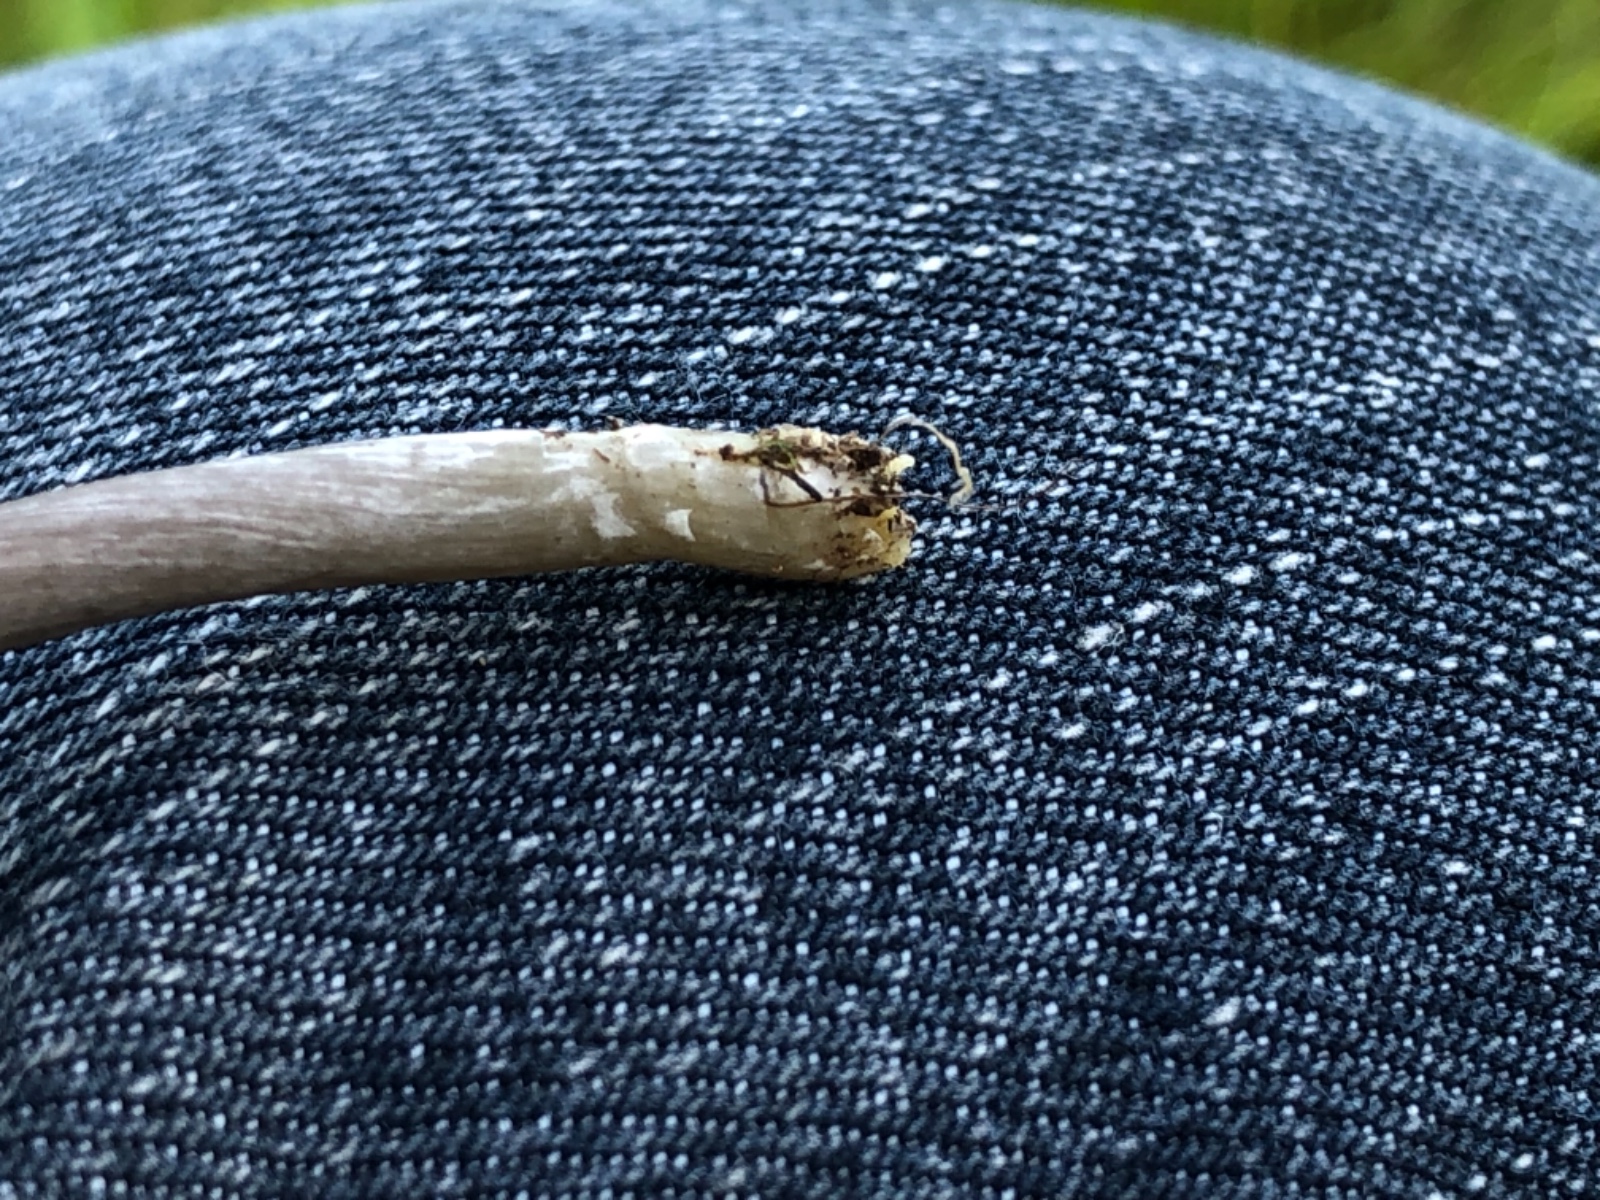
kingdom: Fungi
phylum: Basidiomycota
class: Agaricomycetes
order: Agaricales
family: Entolomataceae
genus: Entoloma
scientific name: Entoloma
